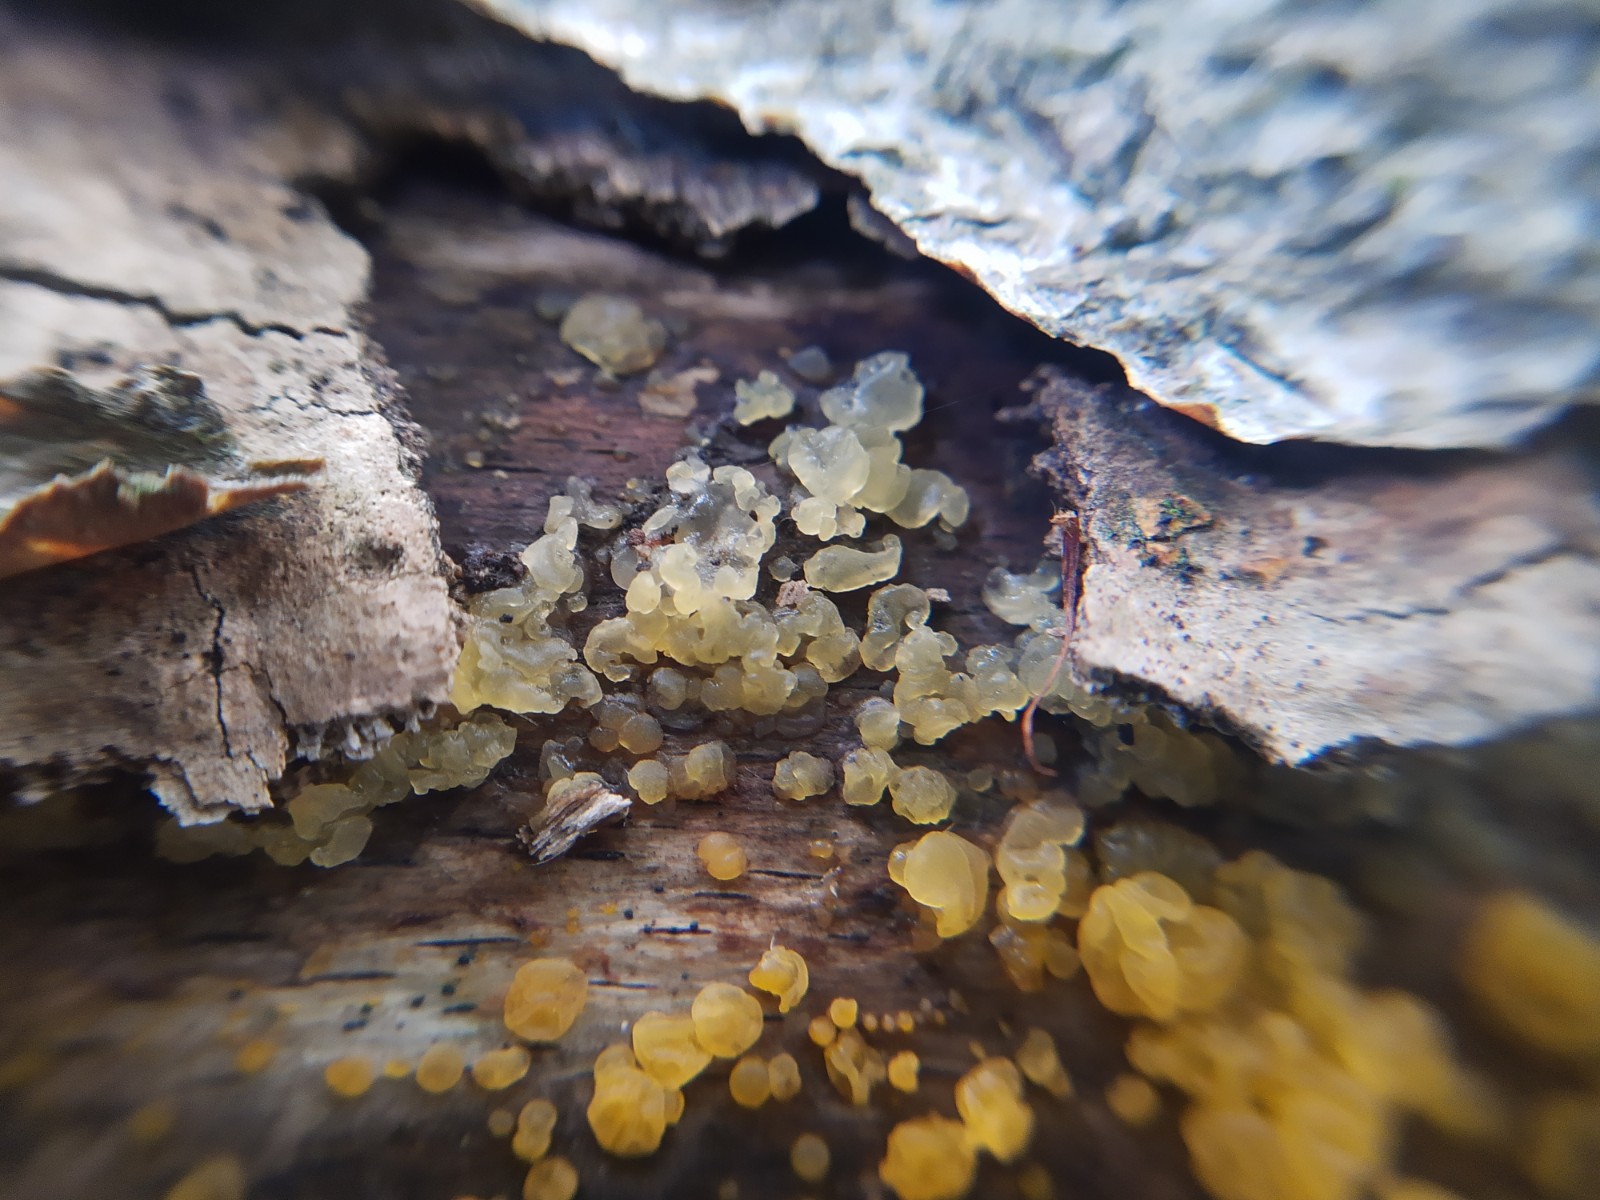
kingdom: Fungi
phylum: Basidiomycota
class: Dacrymycetes
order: Dacrymycetales
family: Dacrymycetaceae
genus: Dacrymyces
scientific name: Dacrymyces
